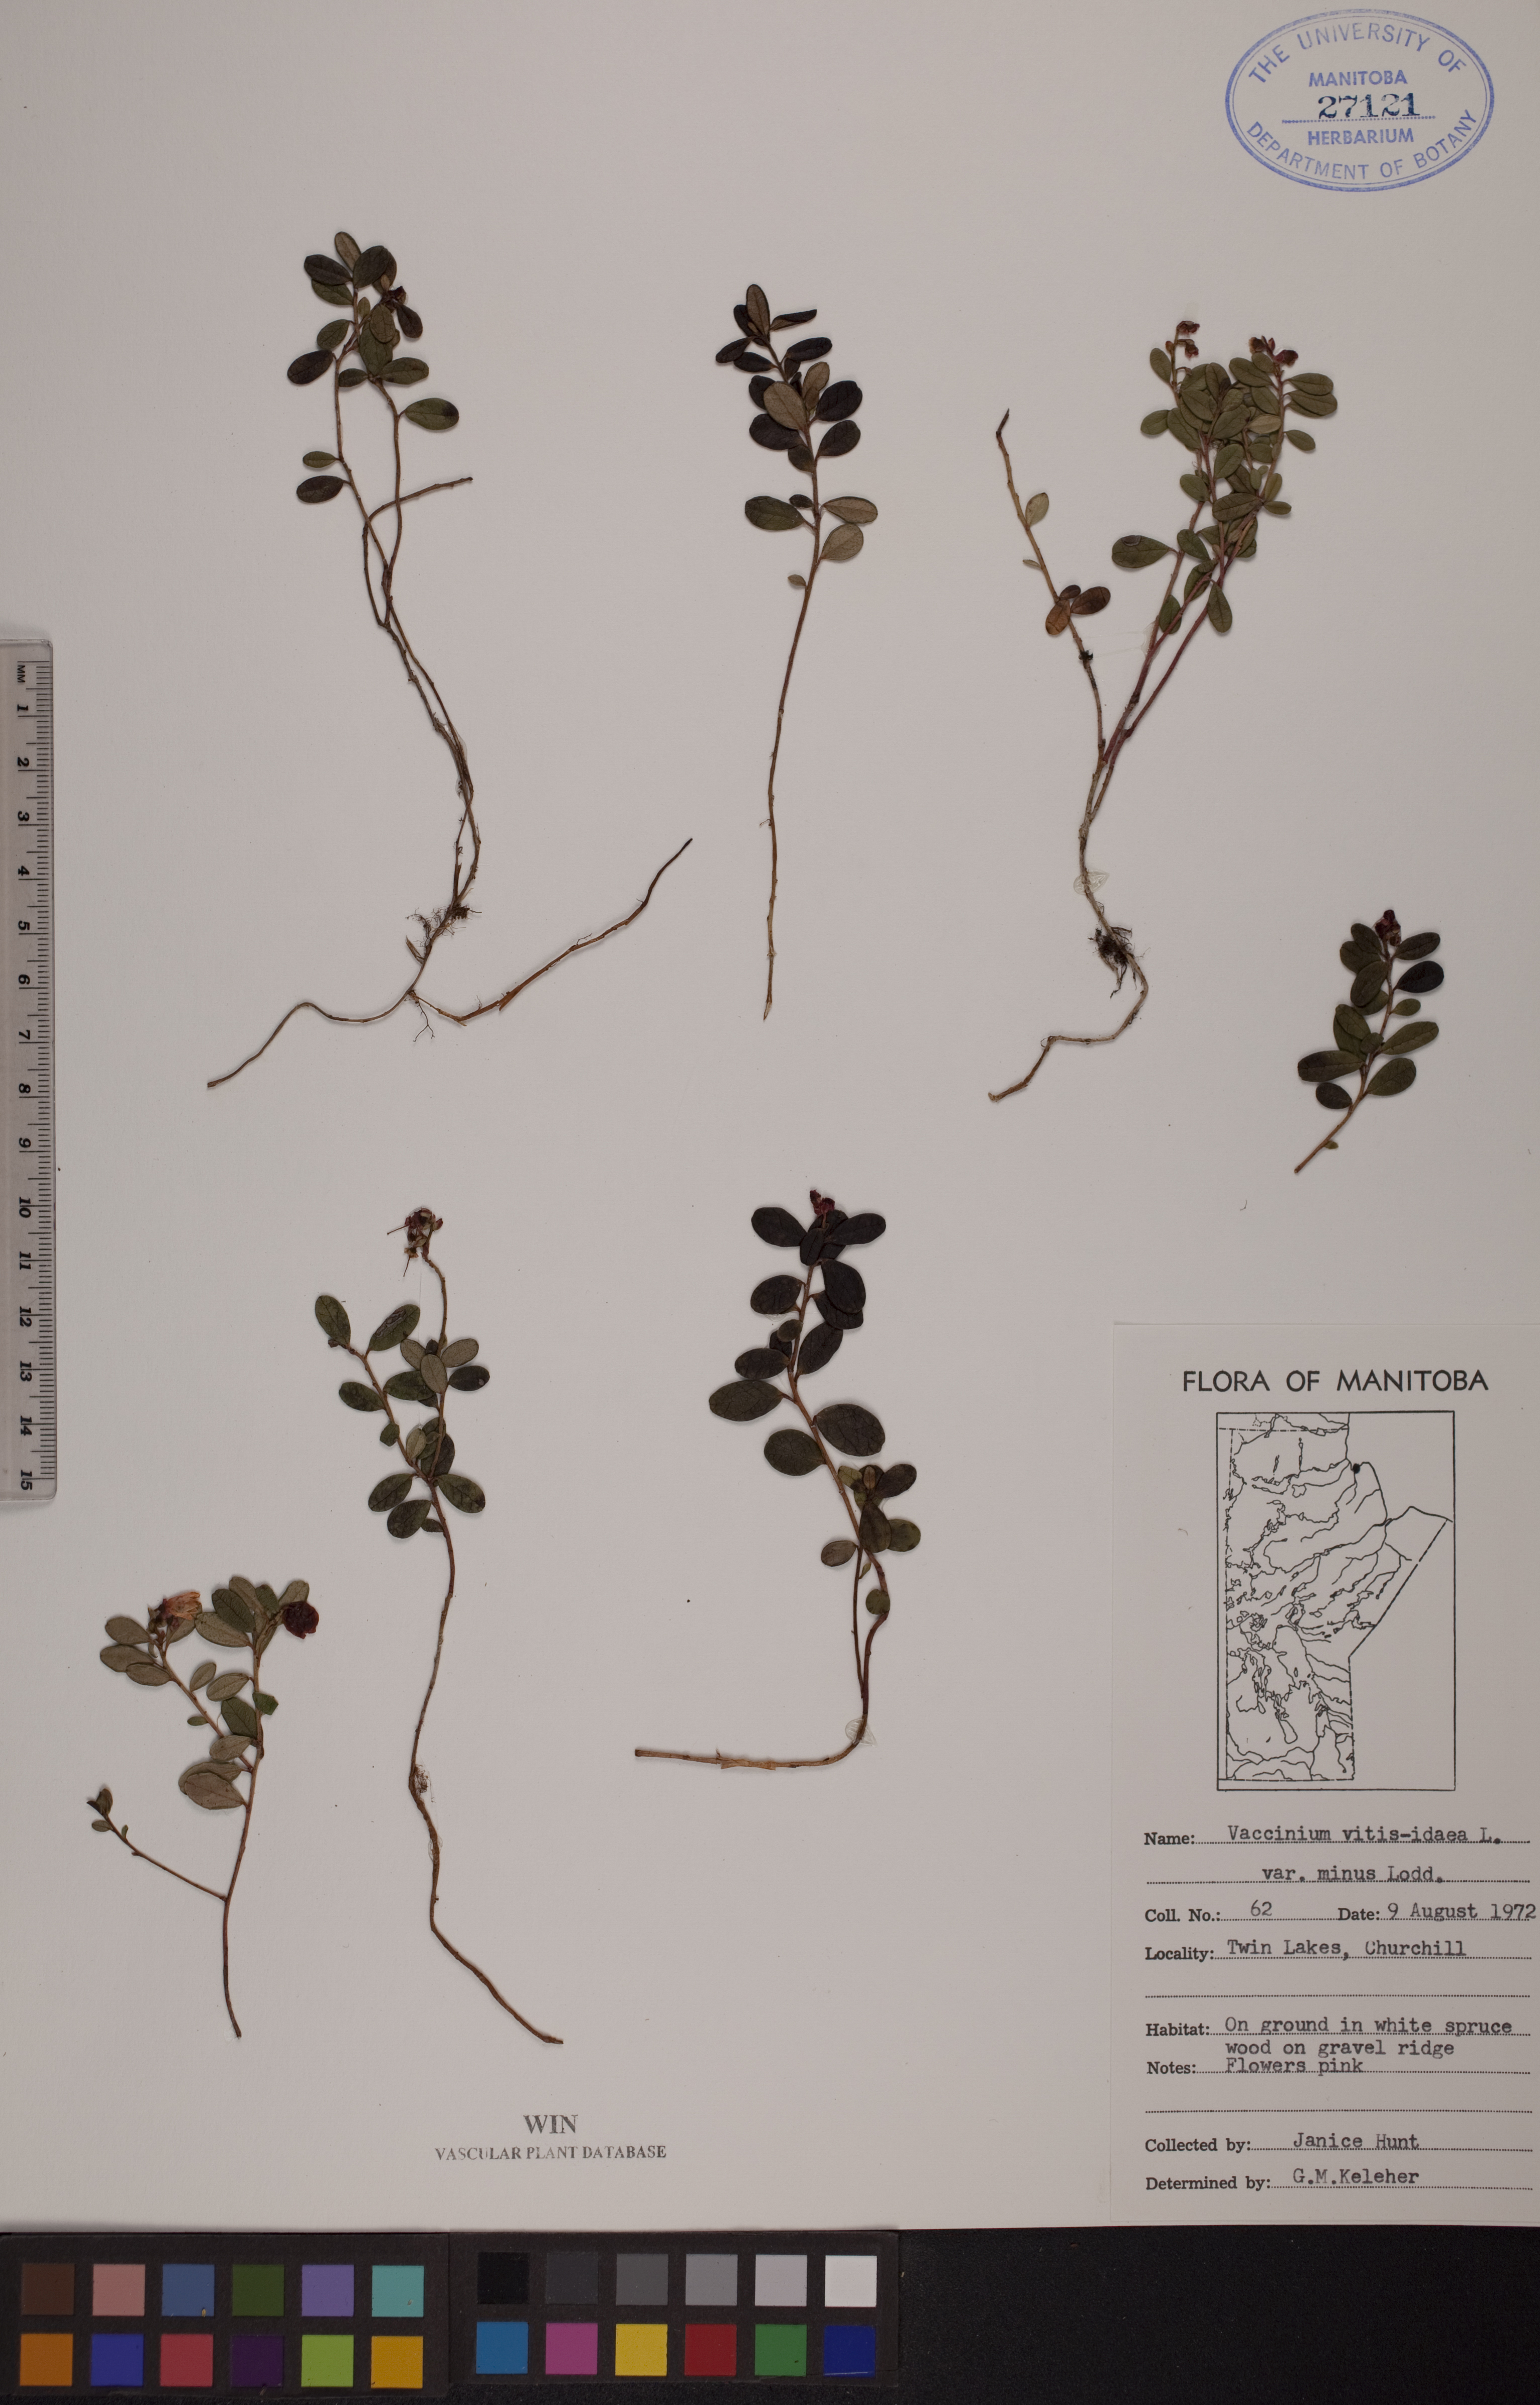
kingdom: Plantae
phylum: Tracheophyta
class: Magnoliopsida
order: Ericales
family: Ericaceae
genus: Vaccinium
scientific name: Vaccinium vitis-idaea
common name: Cowberry
